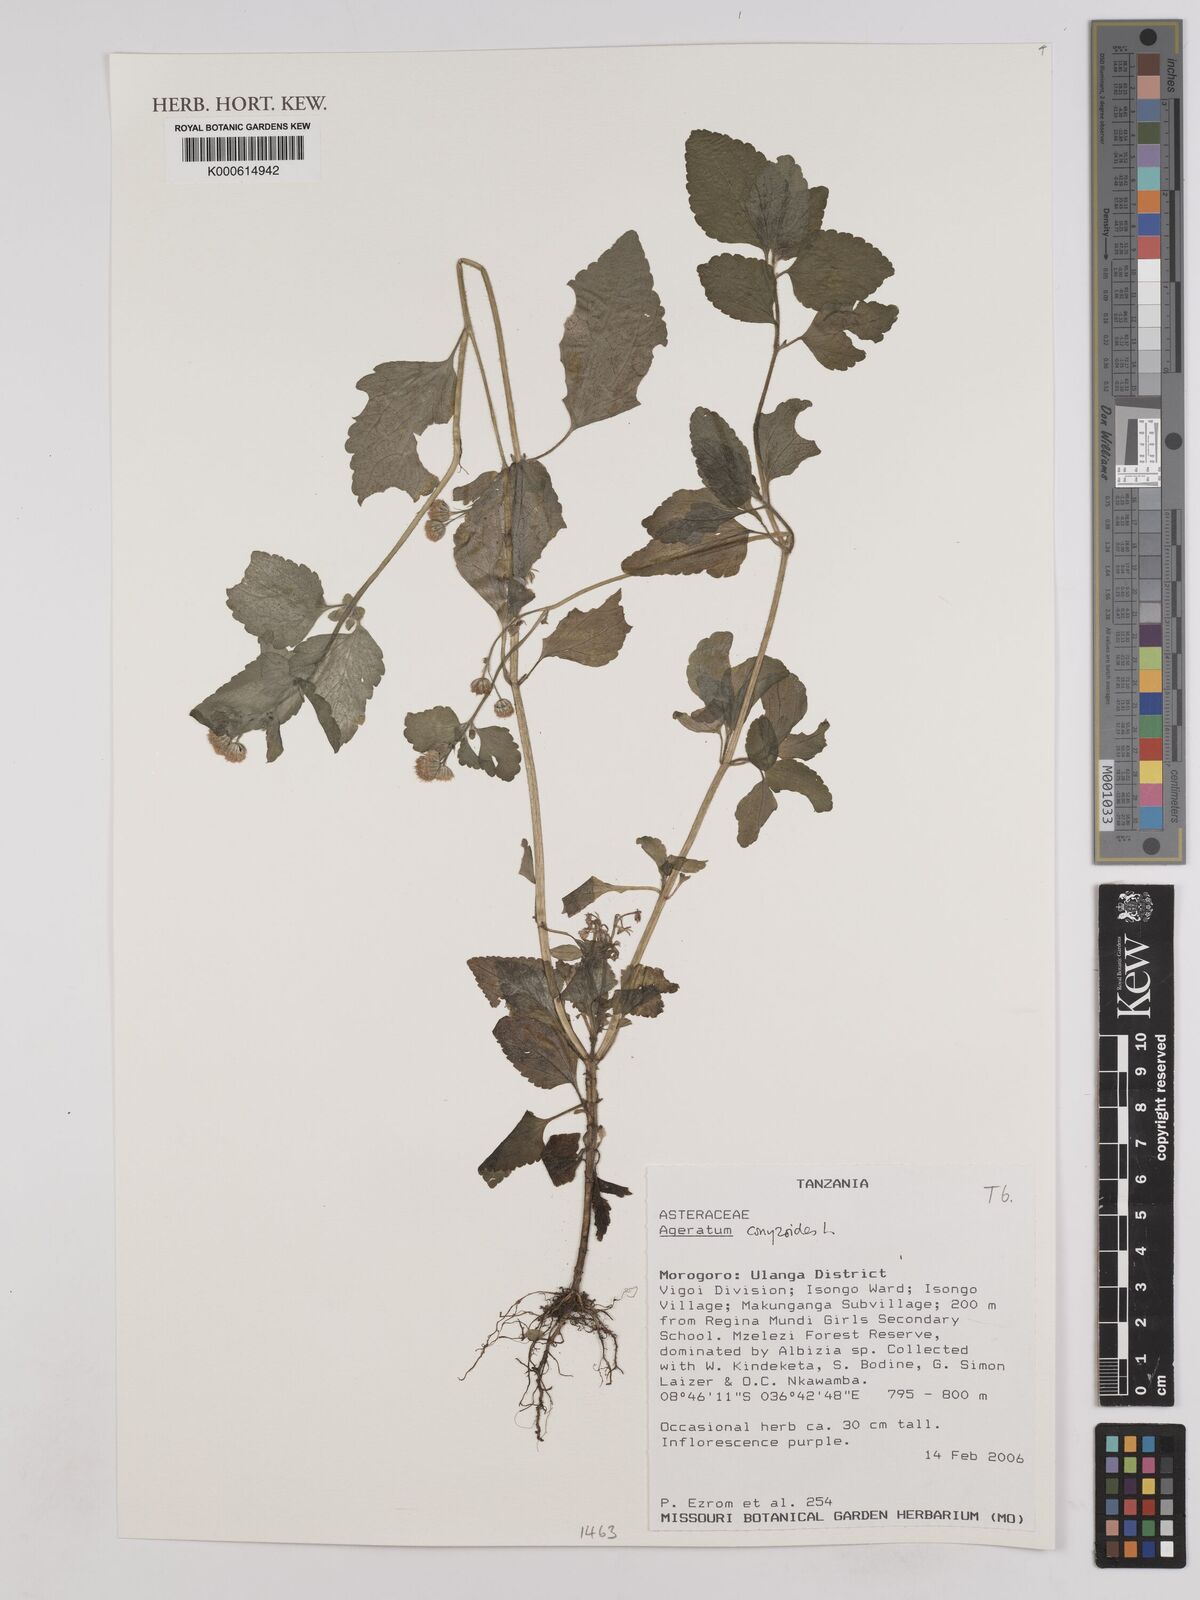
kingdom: Plantae
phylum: Tracheophyta
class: Magnoliopsida
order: Asterales
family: Asteraceae
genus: Ageratum
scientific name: Ageratum conyzoides
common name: Tropical whiteweed
